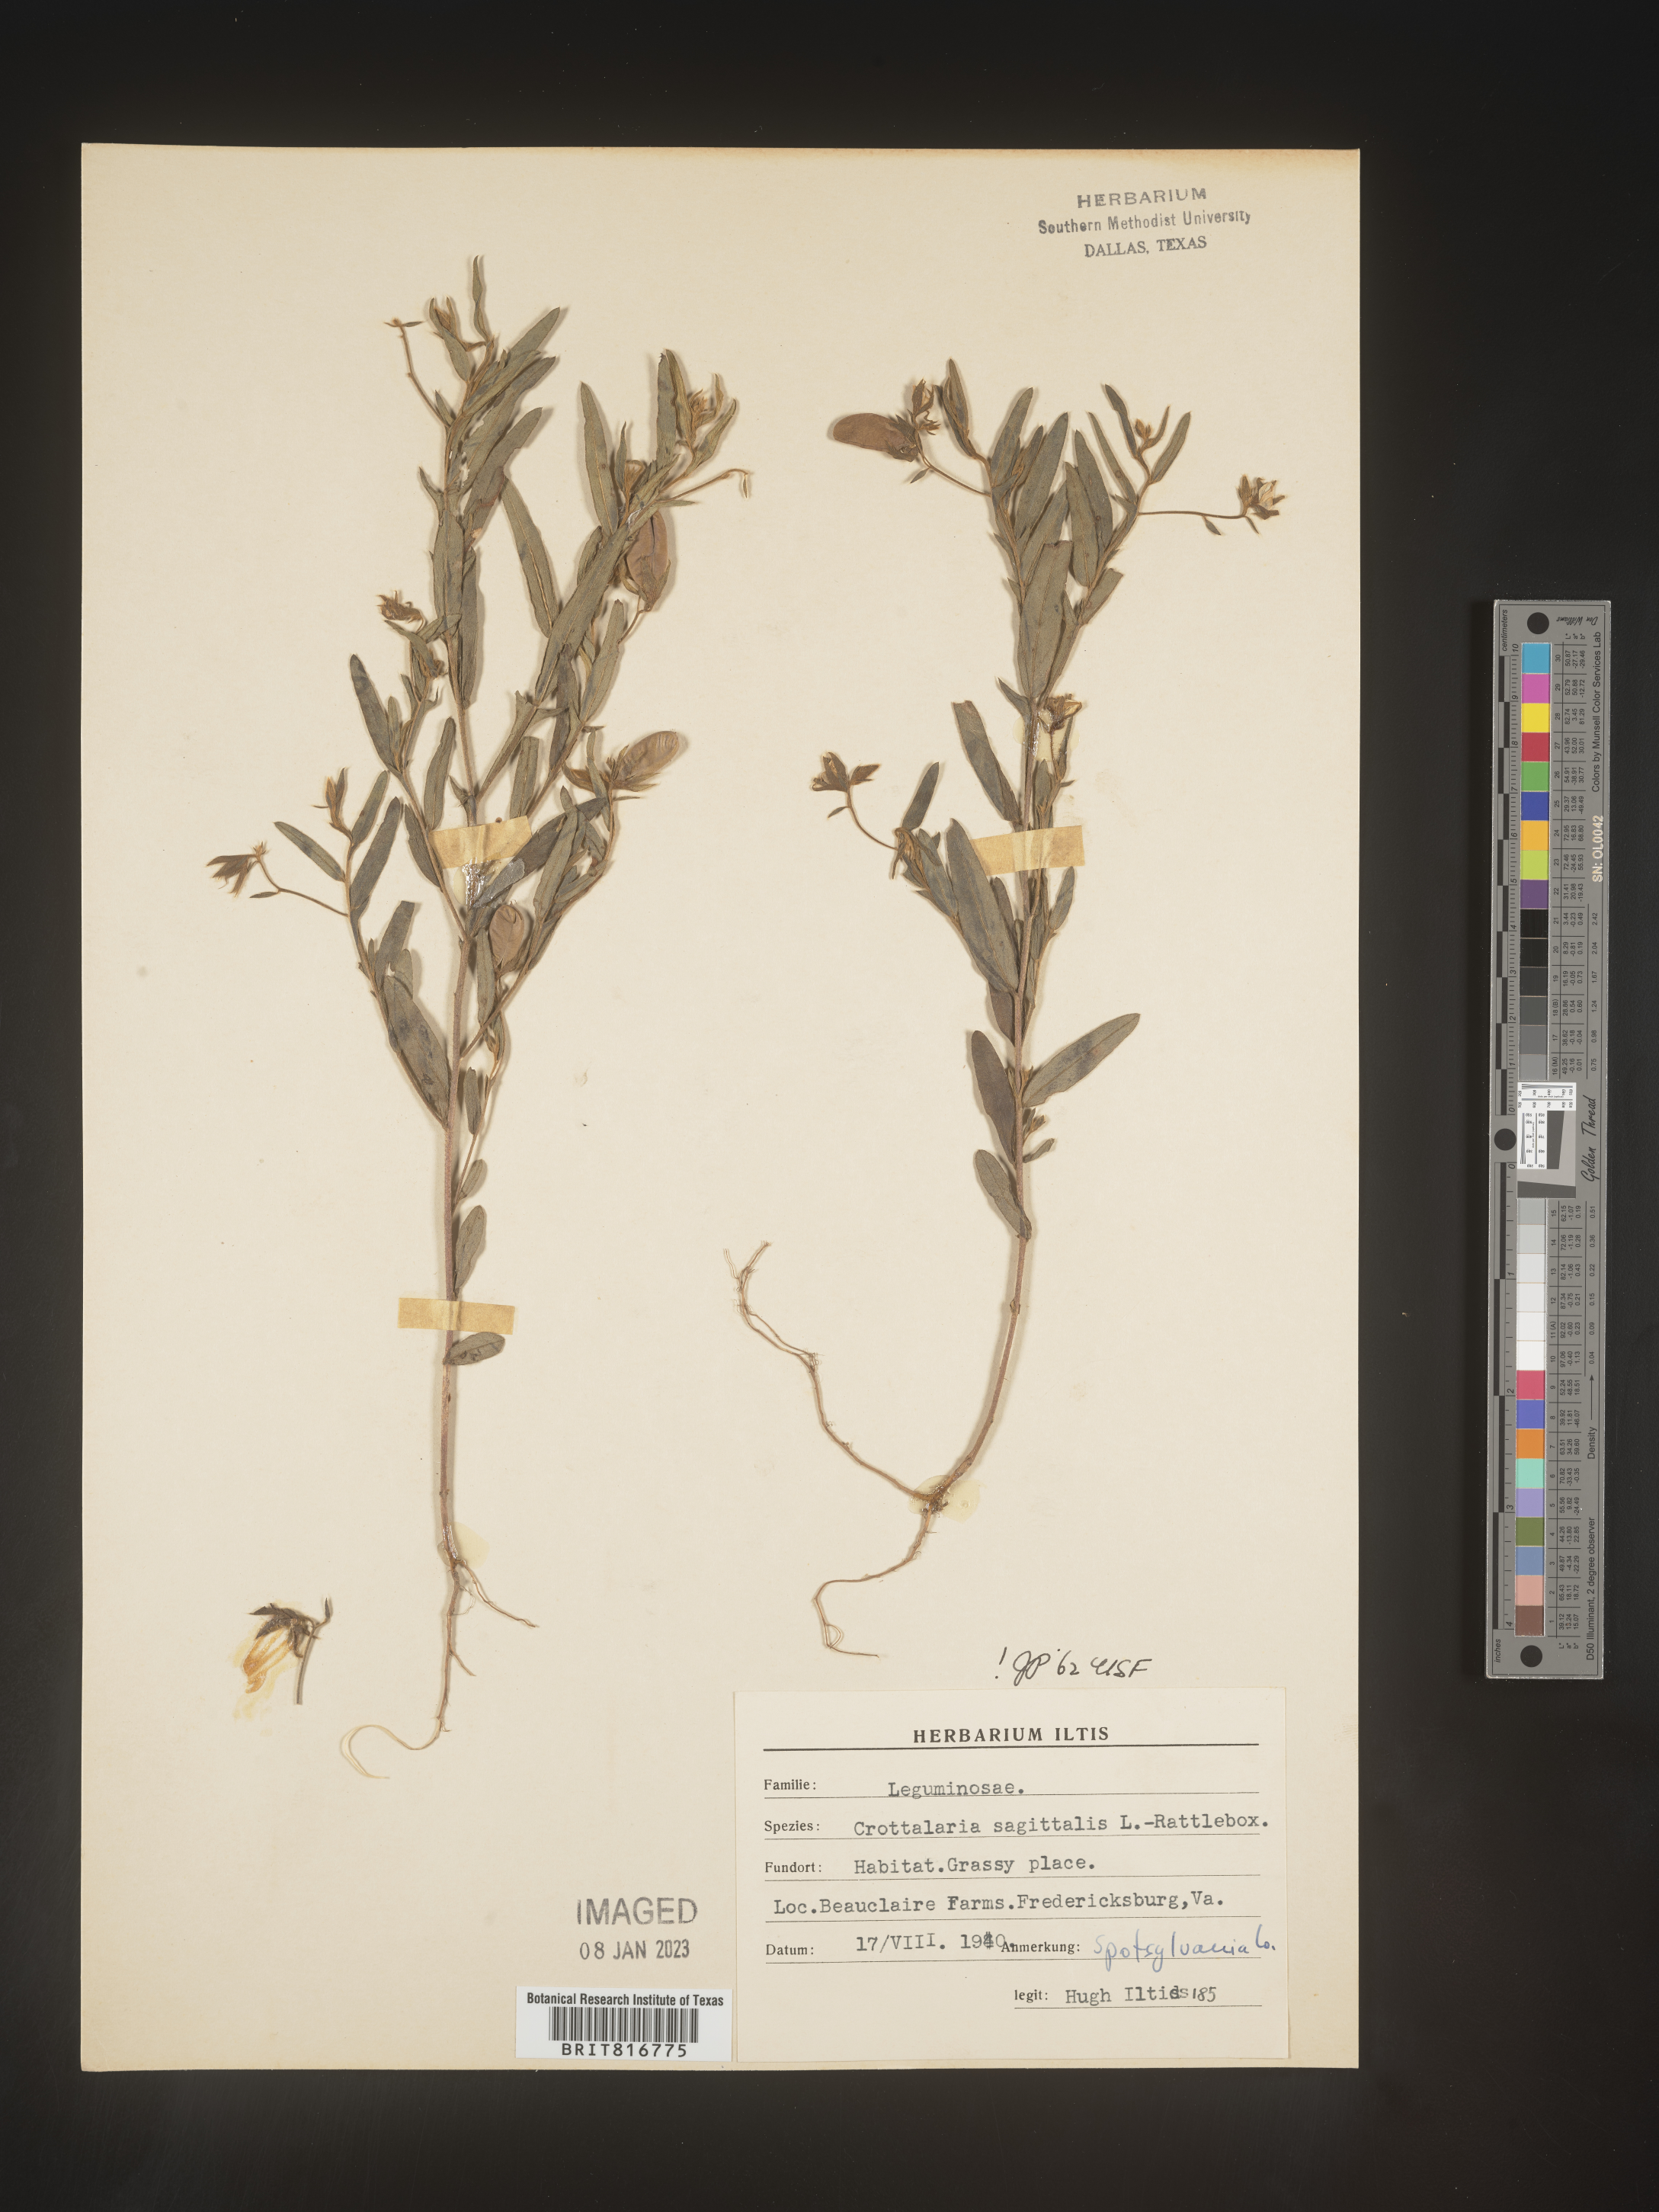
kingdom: Plantae
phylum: Tracheophyta
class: Magnoliopsida
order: Fabales
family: Fabaceae
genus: Crotalaria
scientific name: Crotalaria sagittalis
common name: Arrowhead rattlebox
